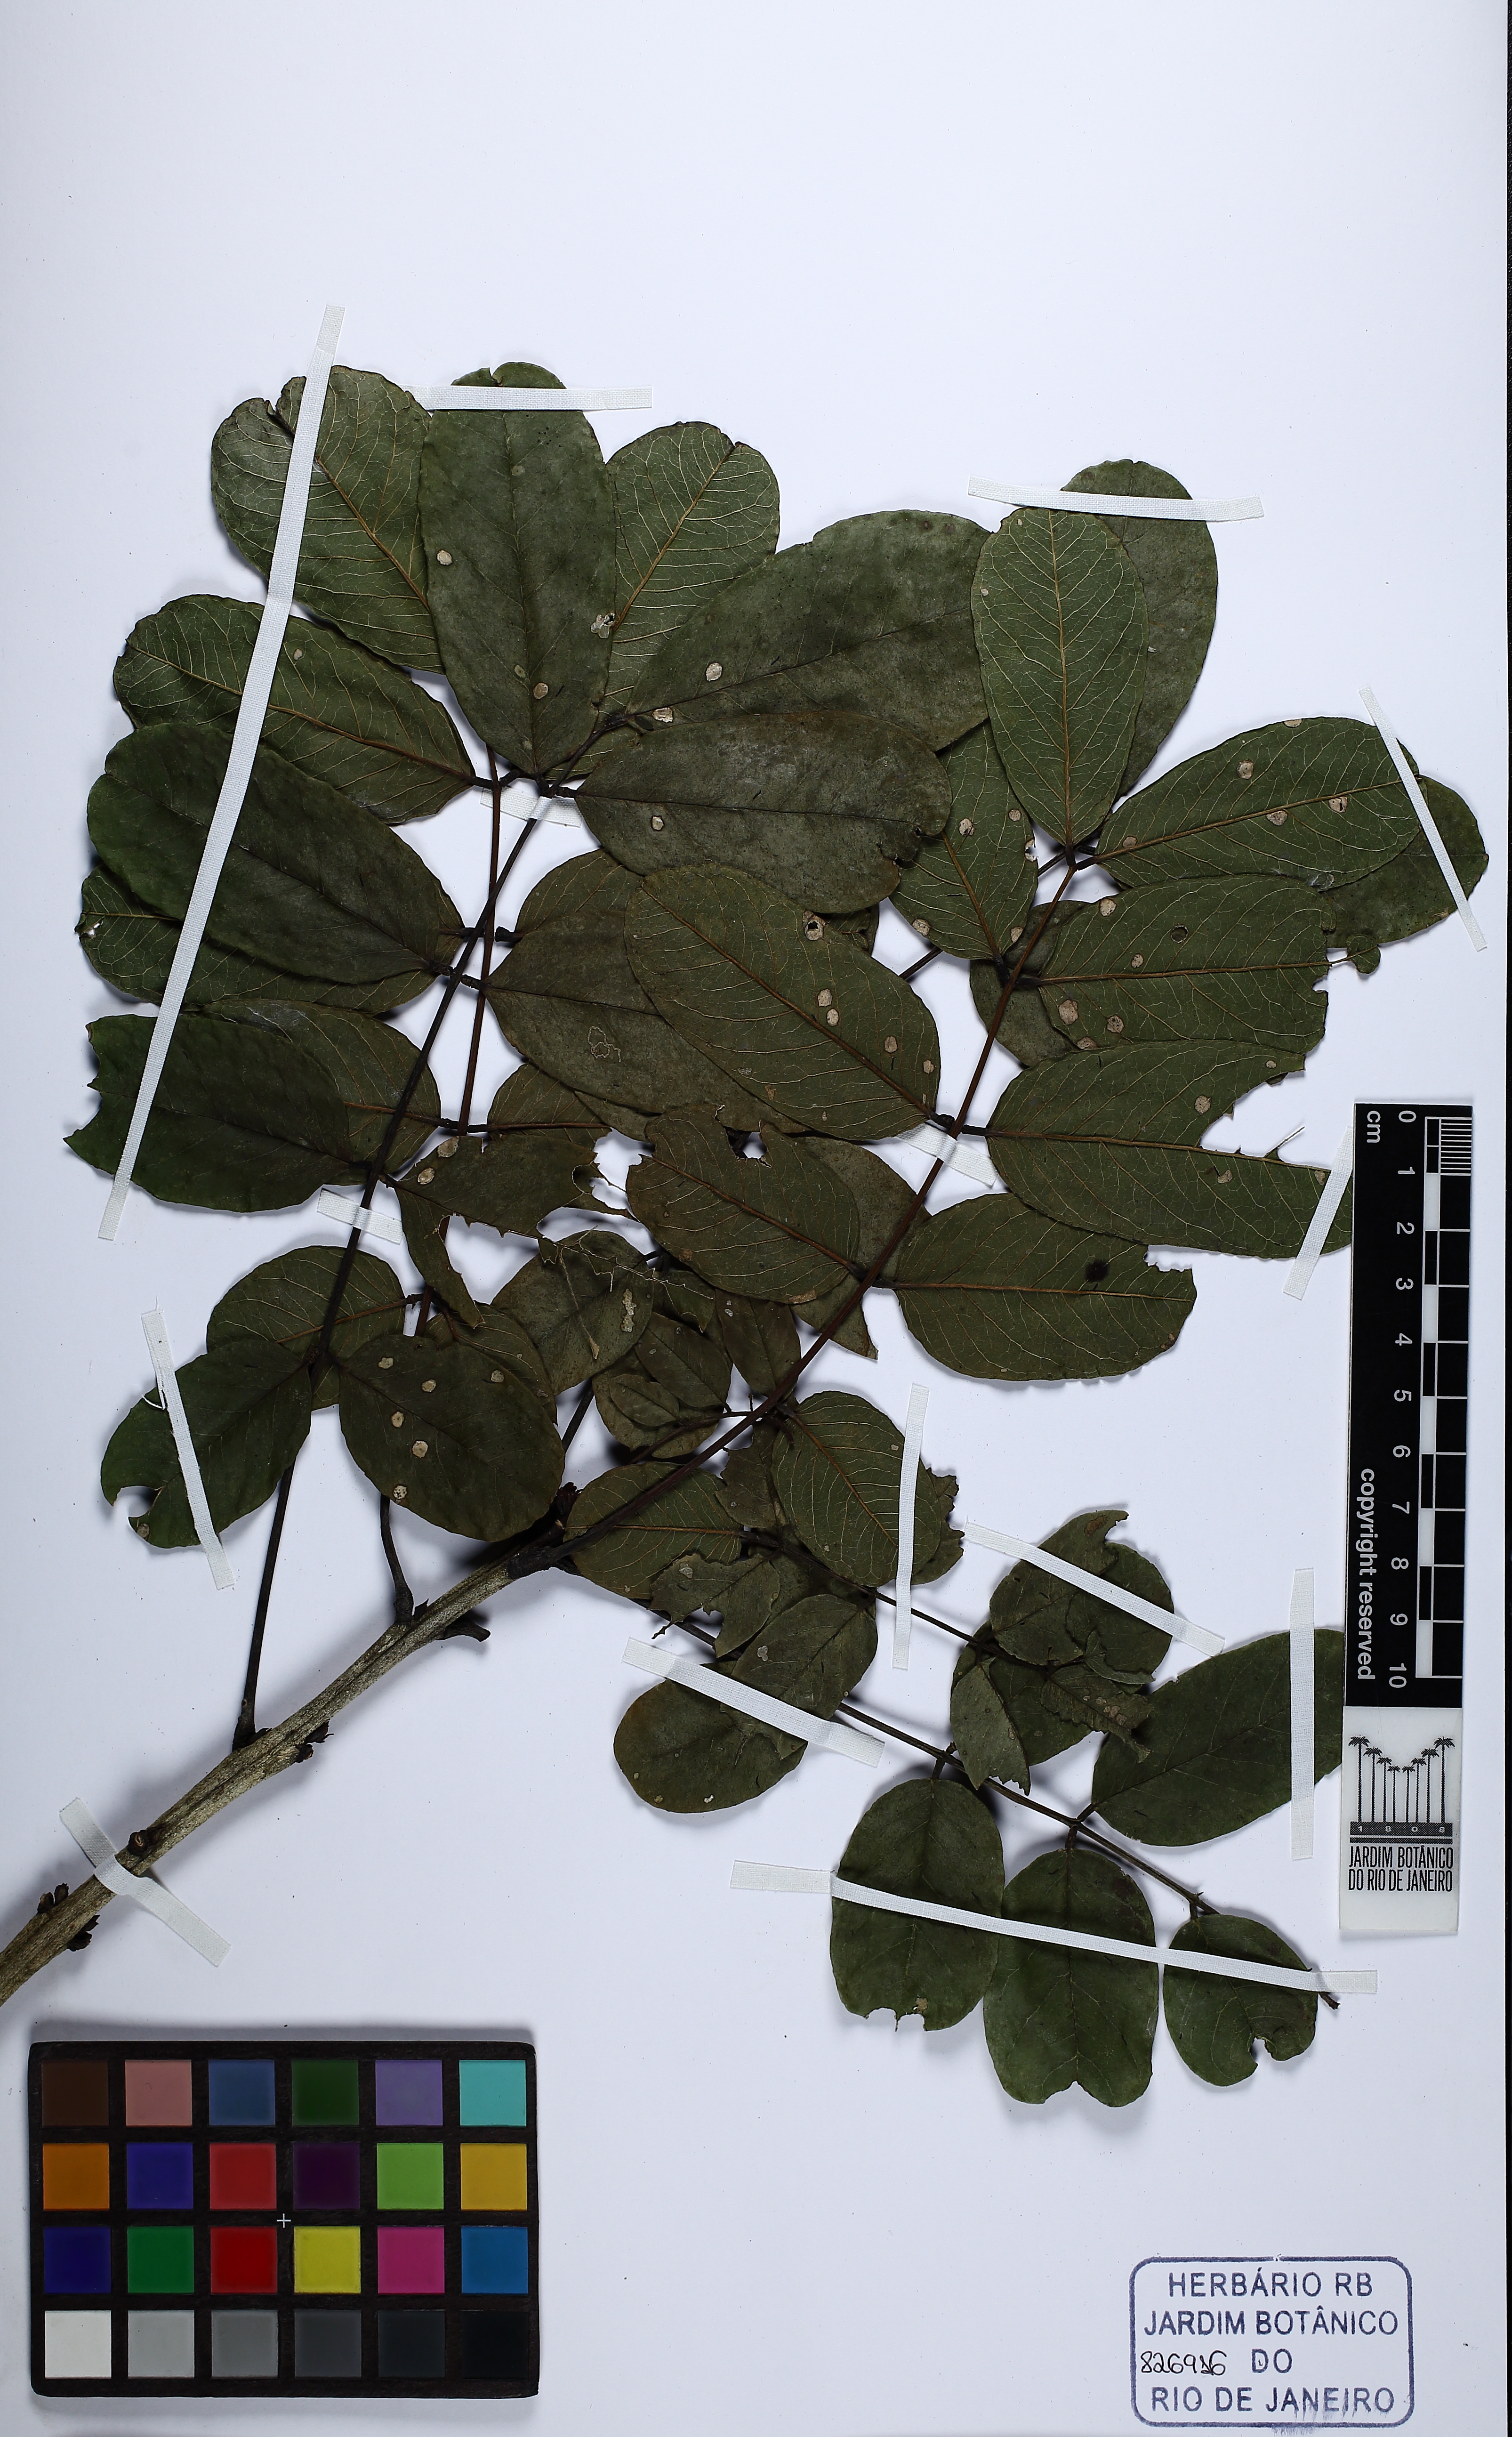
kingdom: Plantae
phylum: Tracheophyta
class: Magnoliopsida
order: Fabales
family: Fabaceae
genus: Andira
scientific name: Andira fraxinifolia
